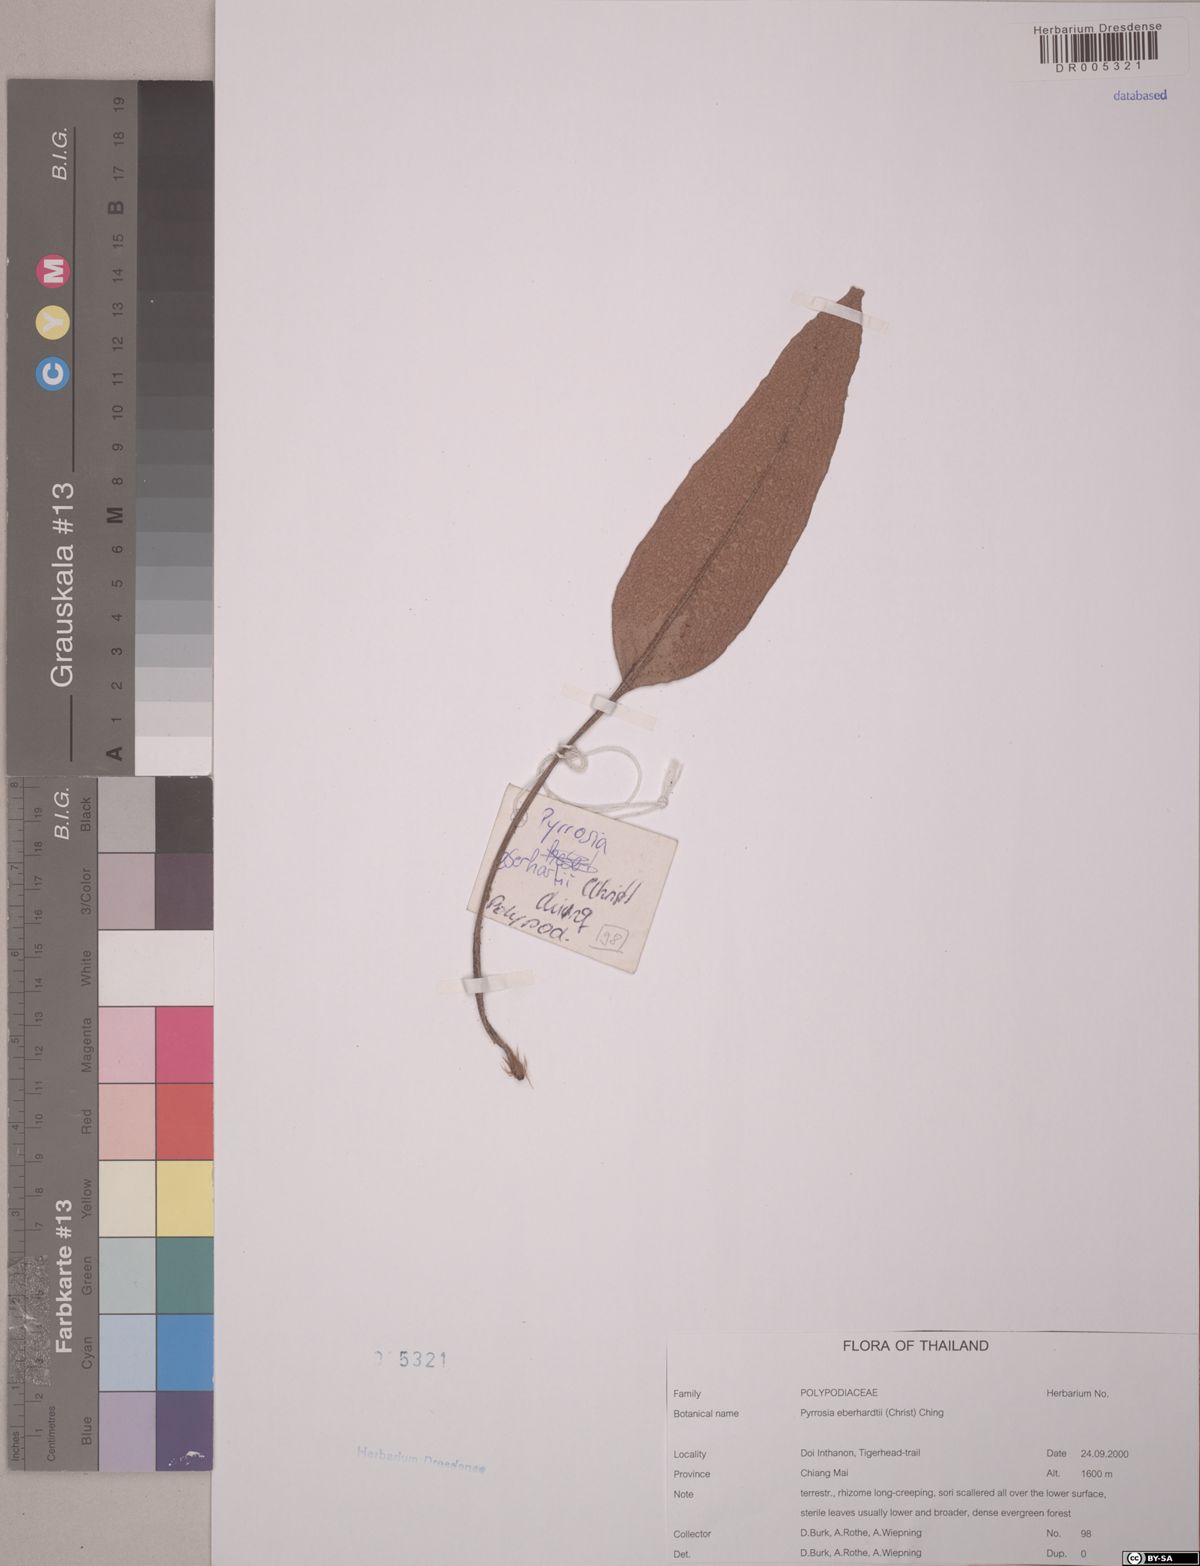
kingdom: Plantae
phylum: Tracheophyta
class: Polypodiopsida
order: Polypodiales
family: Polypodiaceae
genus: Pyrrosia
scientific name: Pyrrosia eberhardtii
